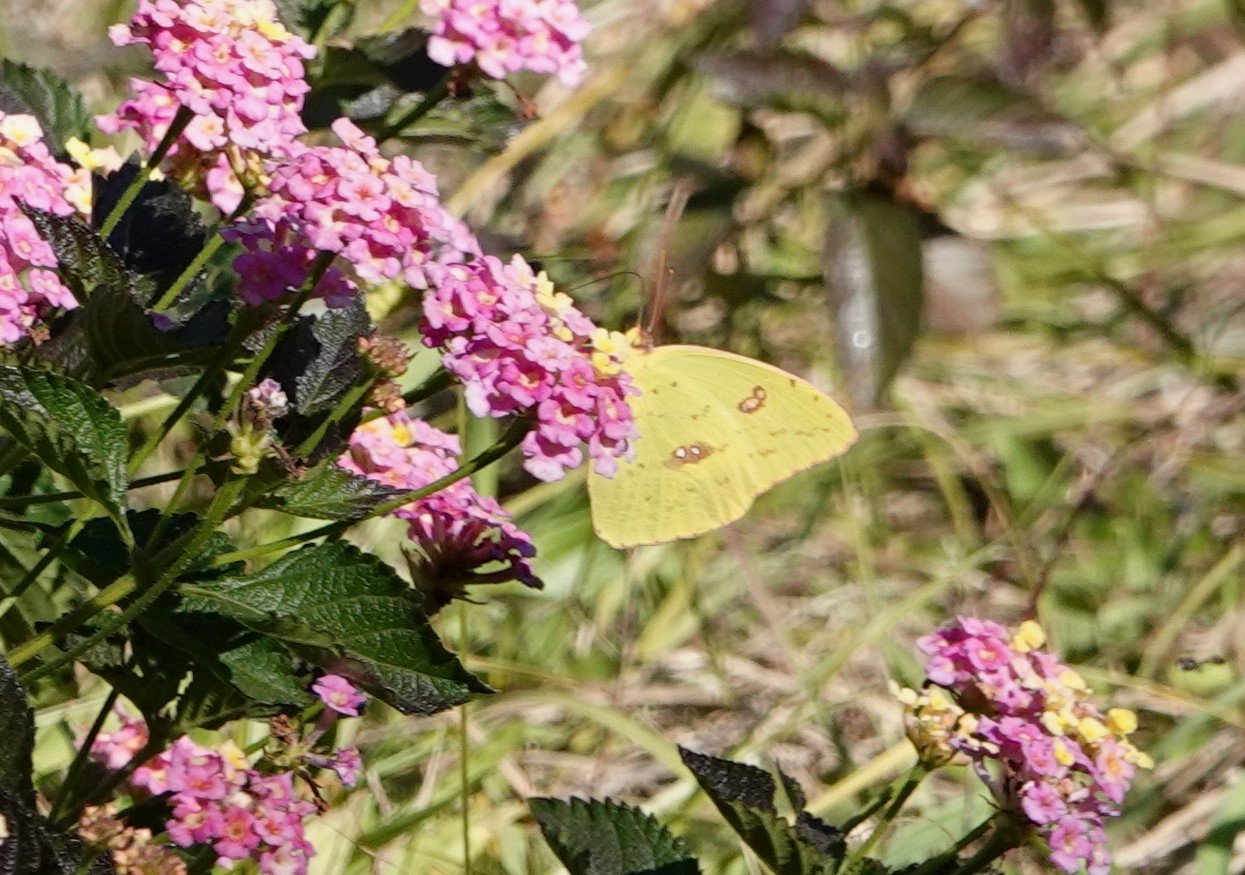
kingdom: Animalia
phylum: Arthropoda
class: Insecta
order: Lepidoptera
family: Pieridae
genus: Phoebis
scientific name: Phoebis sennae
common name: Cloudless Sulphur
